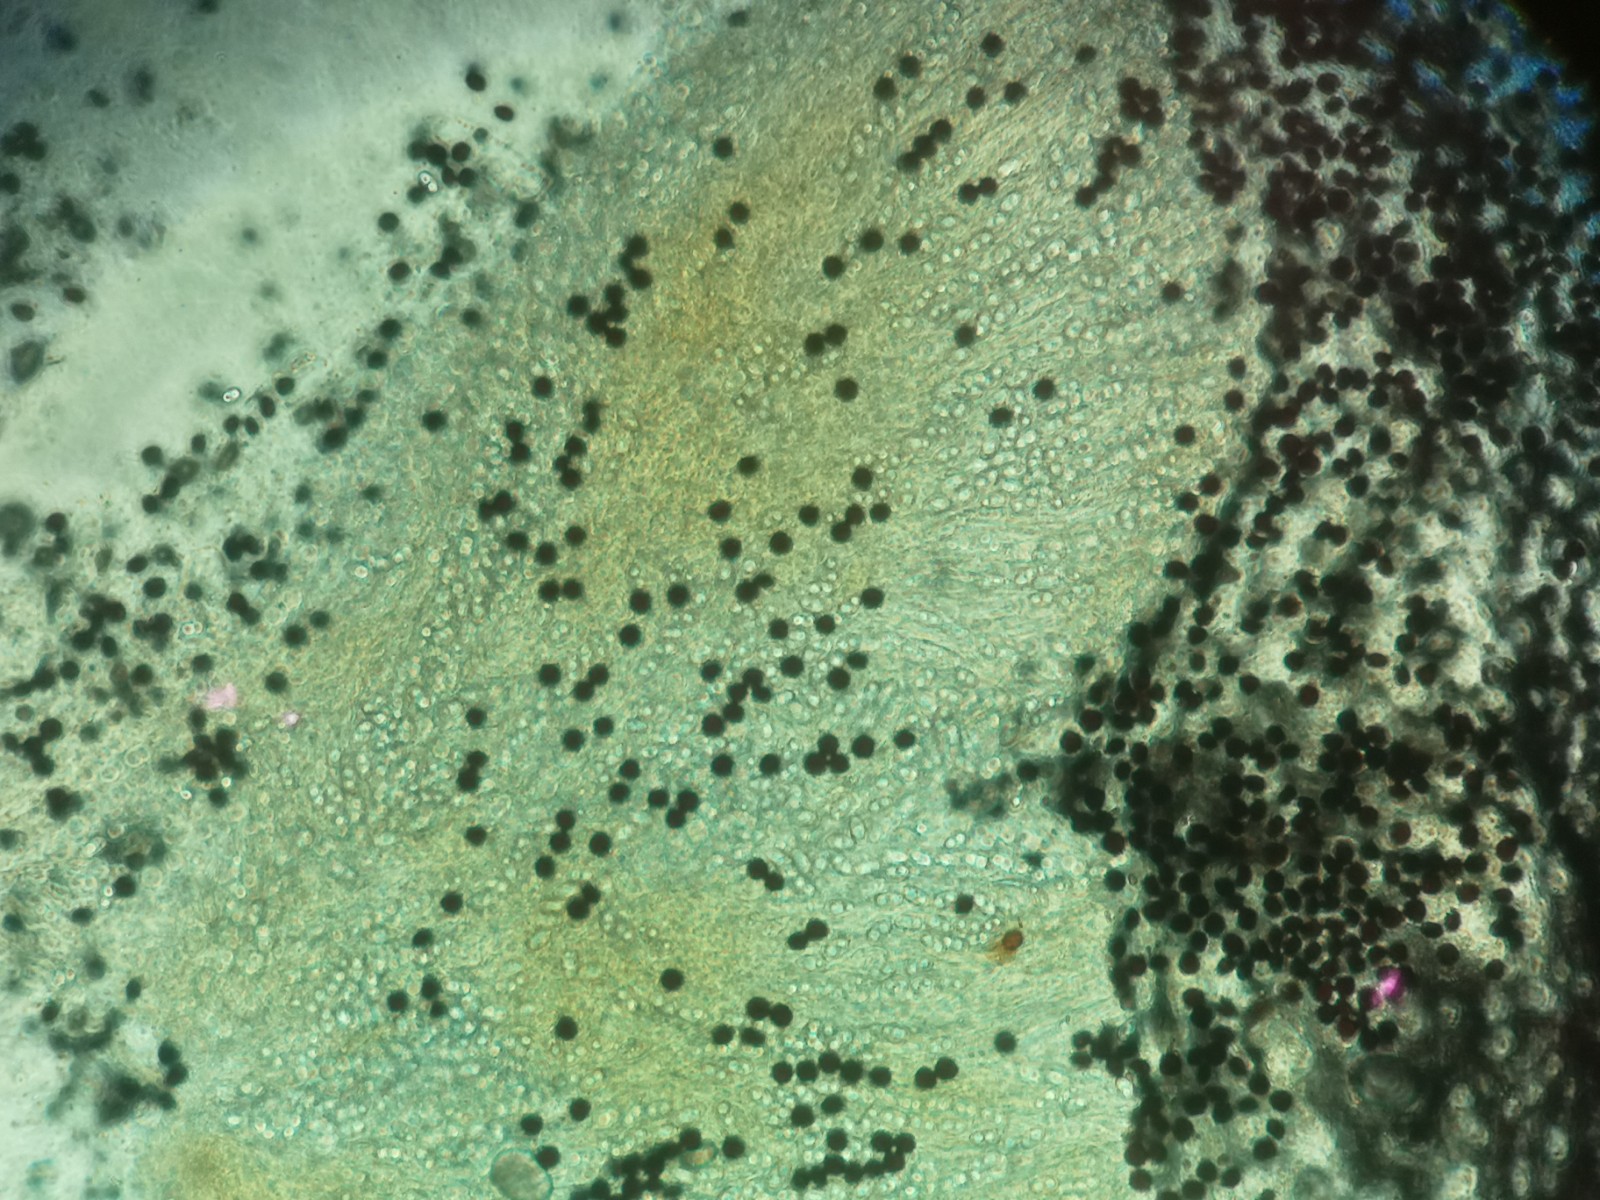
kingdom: Fungi
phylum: Basidiomycota
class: Agaricomycetes
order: Agaricales
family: Psathyrellaceae
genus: Parasola
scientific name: Parasola misera
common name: lillebitte hjulhat
